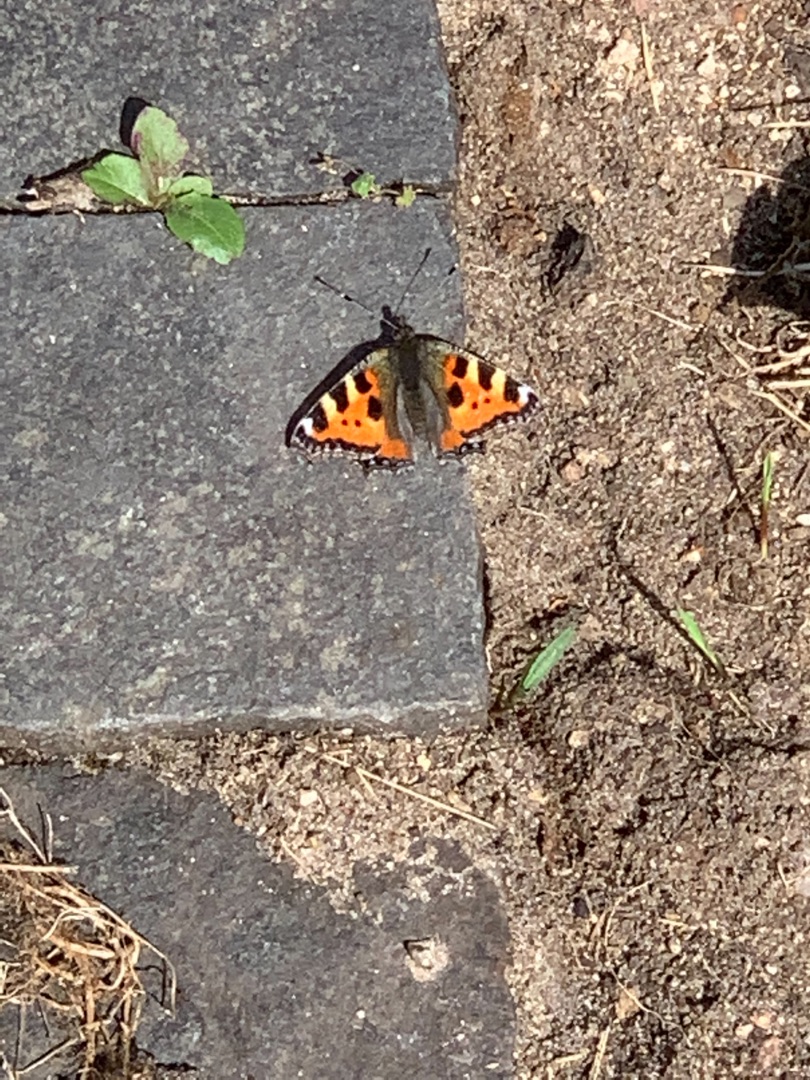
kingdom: Animalia
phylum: Arthropoda
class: Insecta
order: Lepidoptera
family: Nymphalidae
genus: Aglais
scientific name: Aglais urticae
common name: Nældens takvinge
